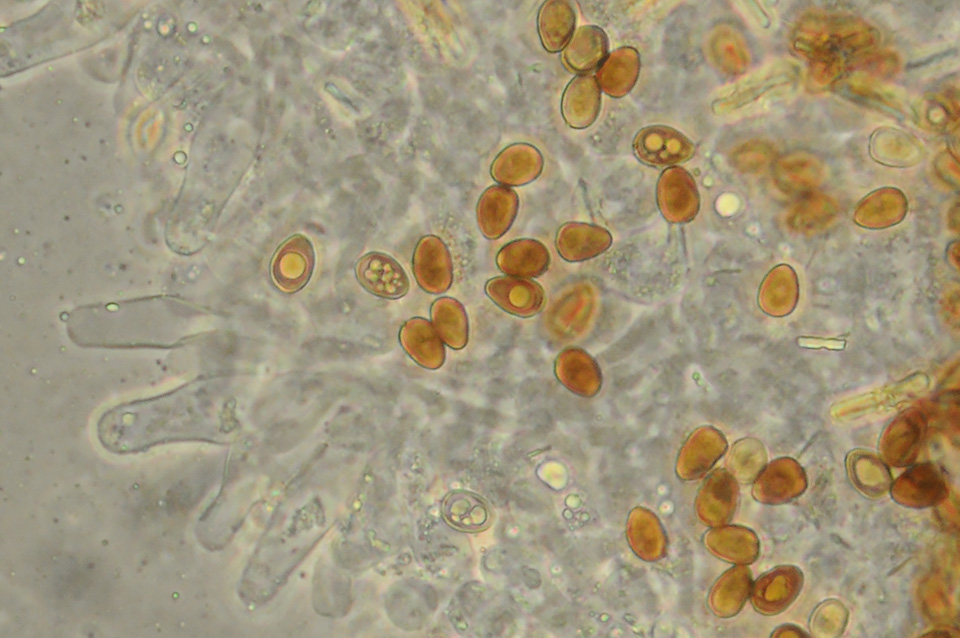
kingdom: Fungi
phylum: Basidiomycota
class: Agaricomycetes
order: Agaricales
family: Psathyrellaceae
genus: Psathyrella
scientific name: Psathyrella
